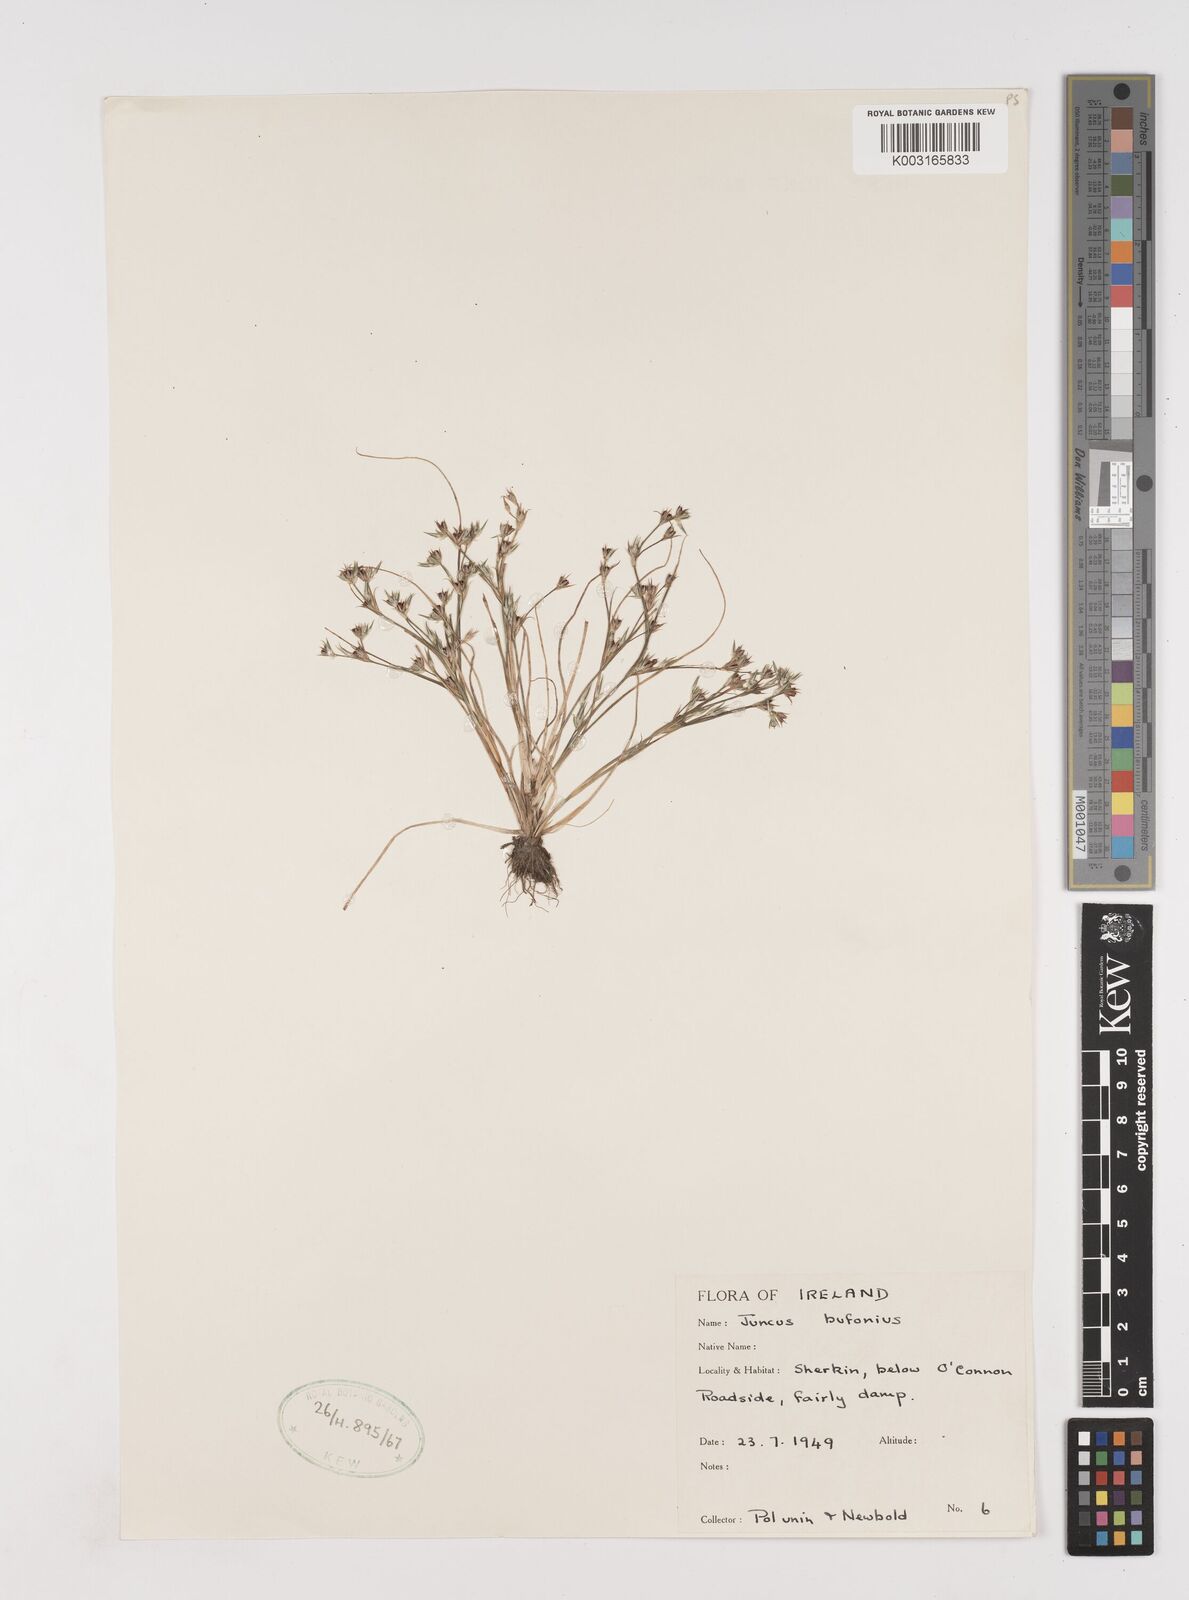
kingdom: Plantae
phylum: Tracheophyta
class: Liliopsida
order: Poales
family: Juncaceae
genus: Juncus
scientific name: Juncus bufonius
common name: Toad rush
